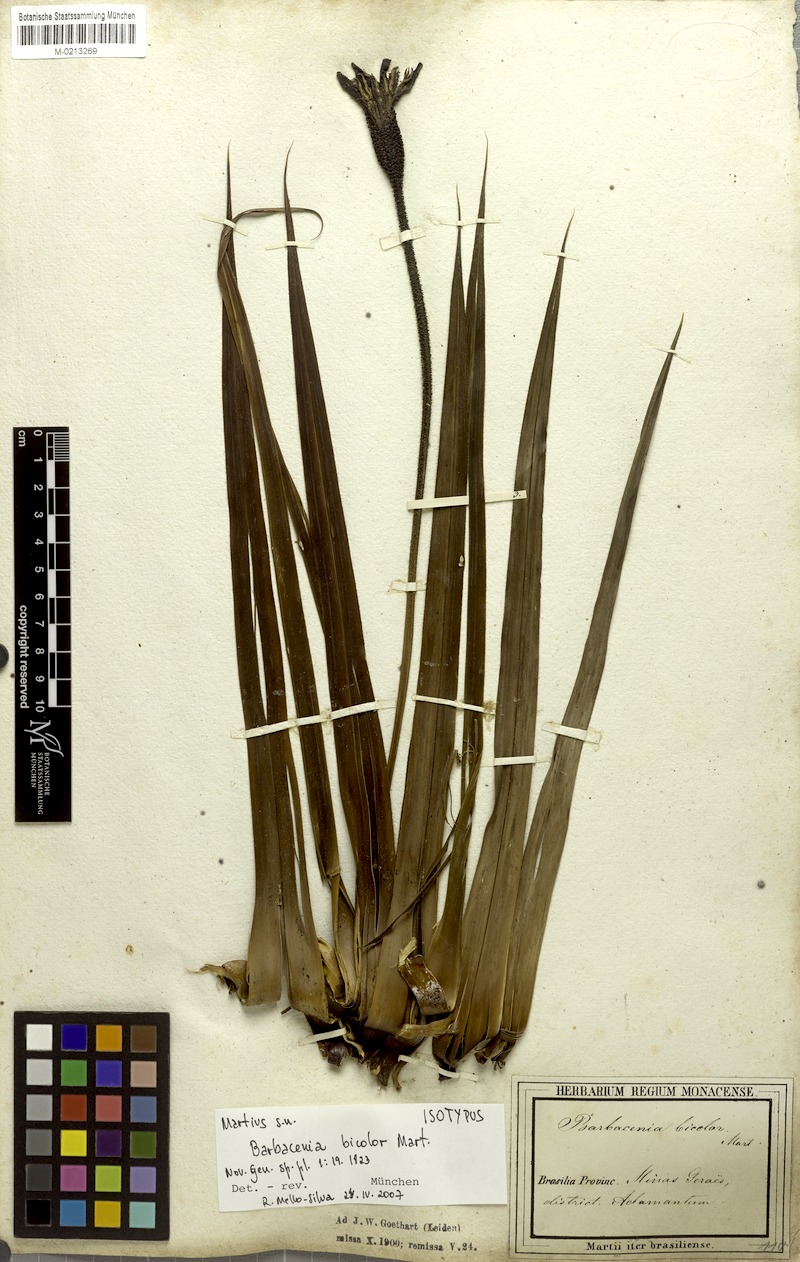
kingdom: Plantae
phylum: Tracheophyta
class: Liliopsida
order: Pandanales
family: Velloziaceae
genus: Barbacenia
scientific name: Barbacenia brasiliensis
